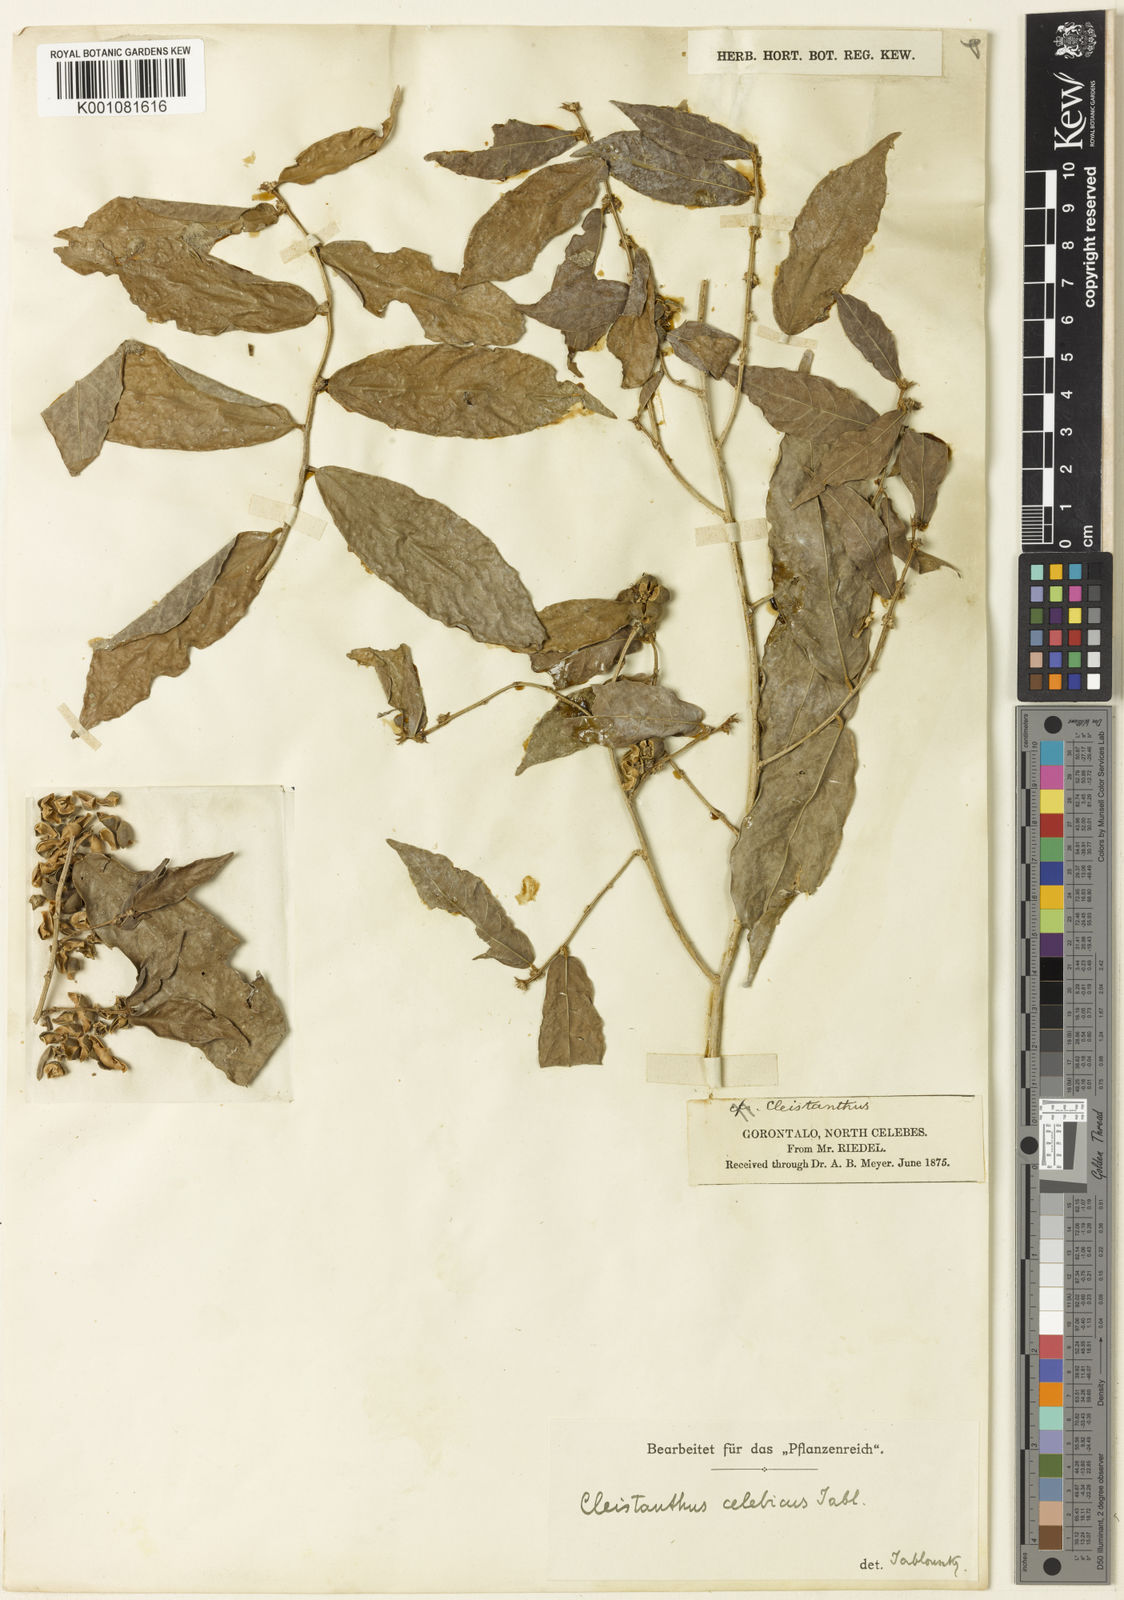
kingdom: Plantae
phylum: Tracheophyta
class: Magnoliopsida
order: Malpighiales
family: Phyllanthaceae
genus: Cleistanthus
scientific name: Cleistanthus celebicus
